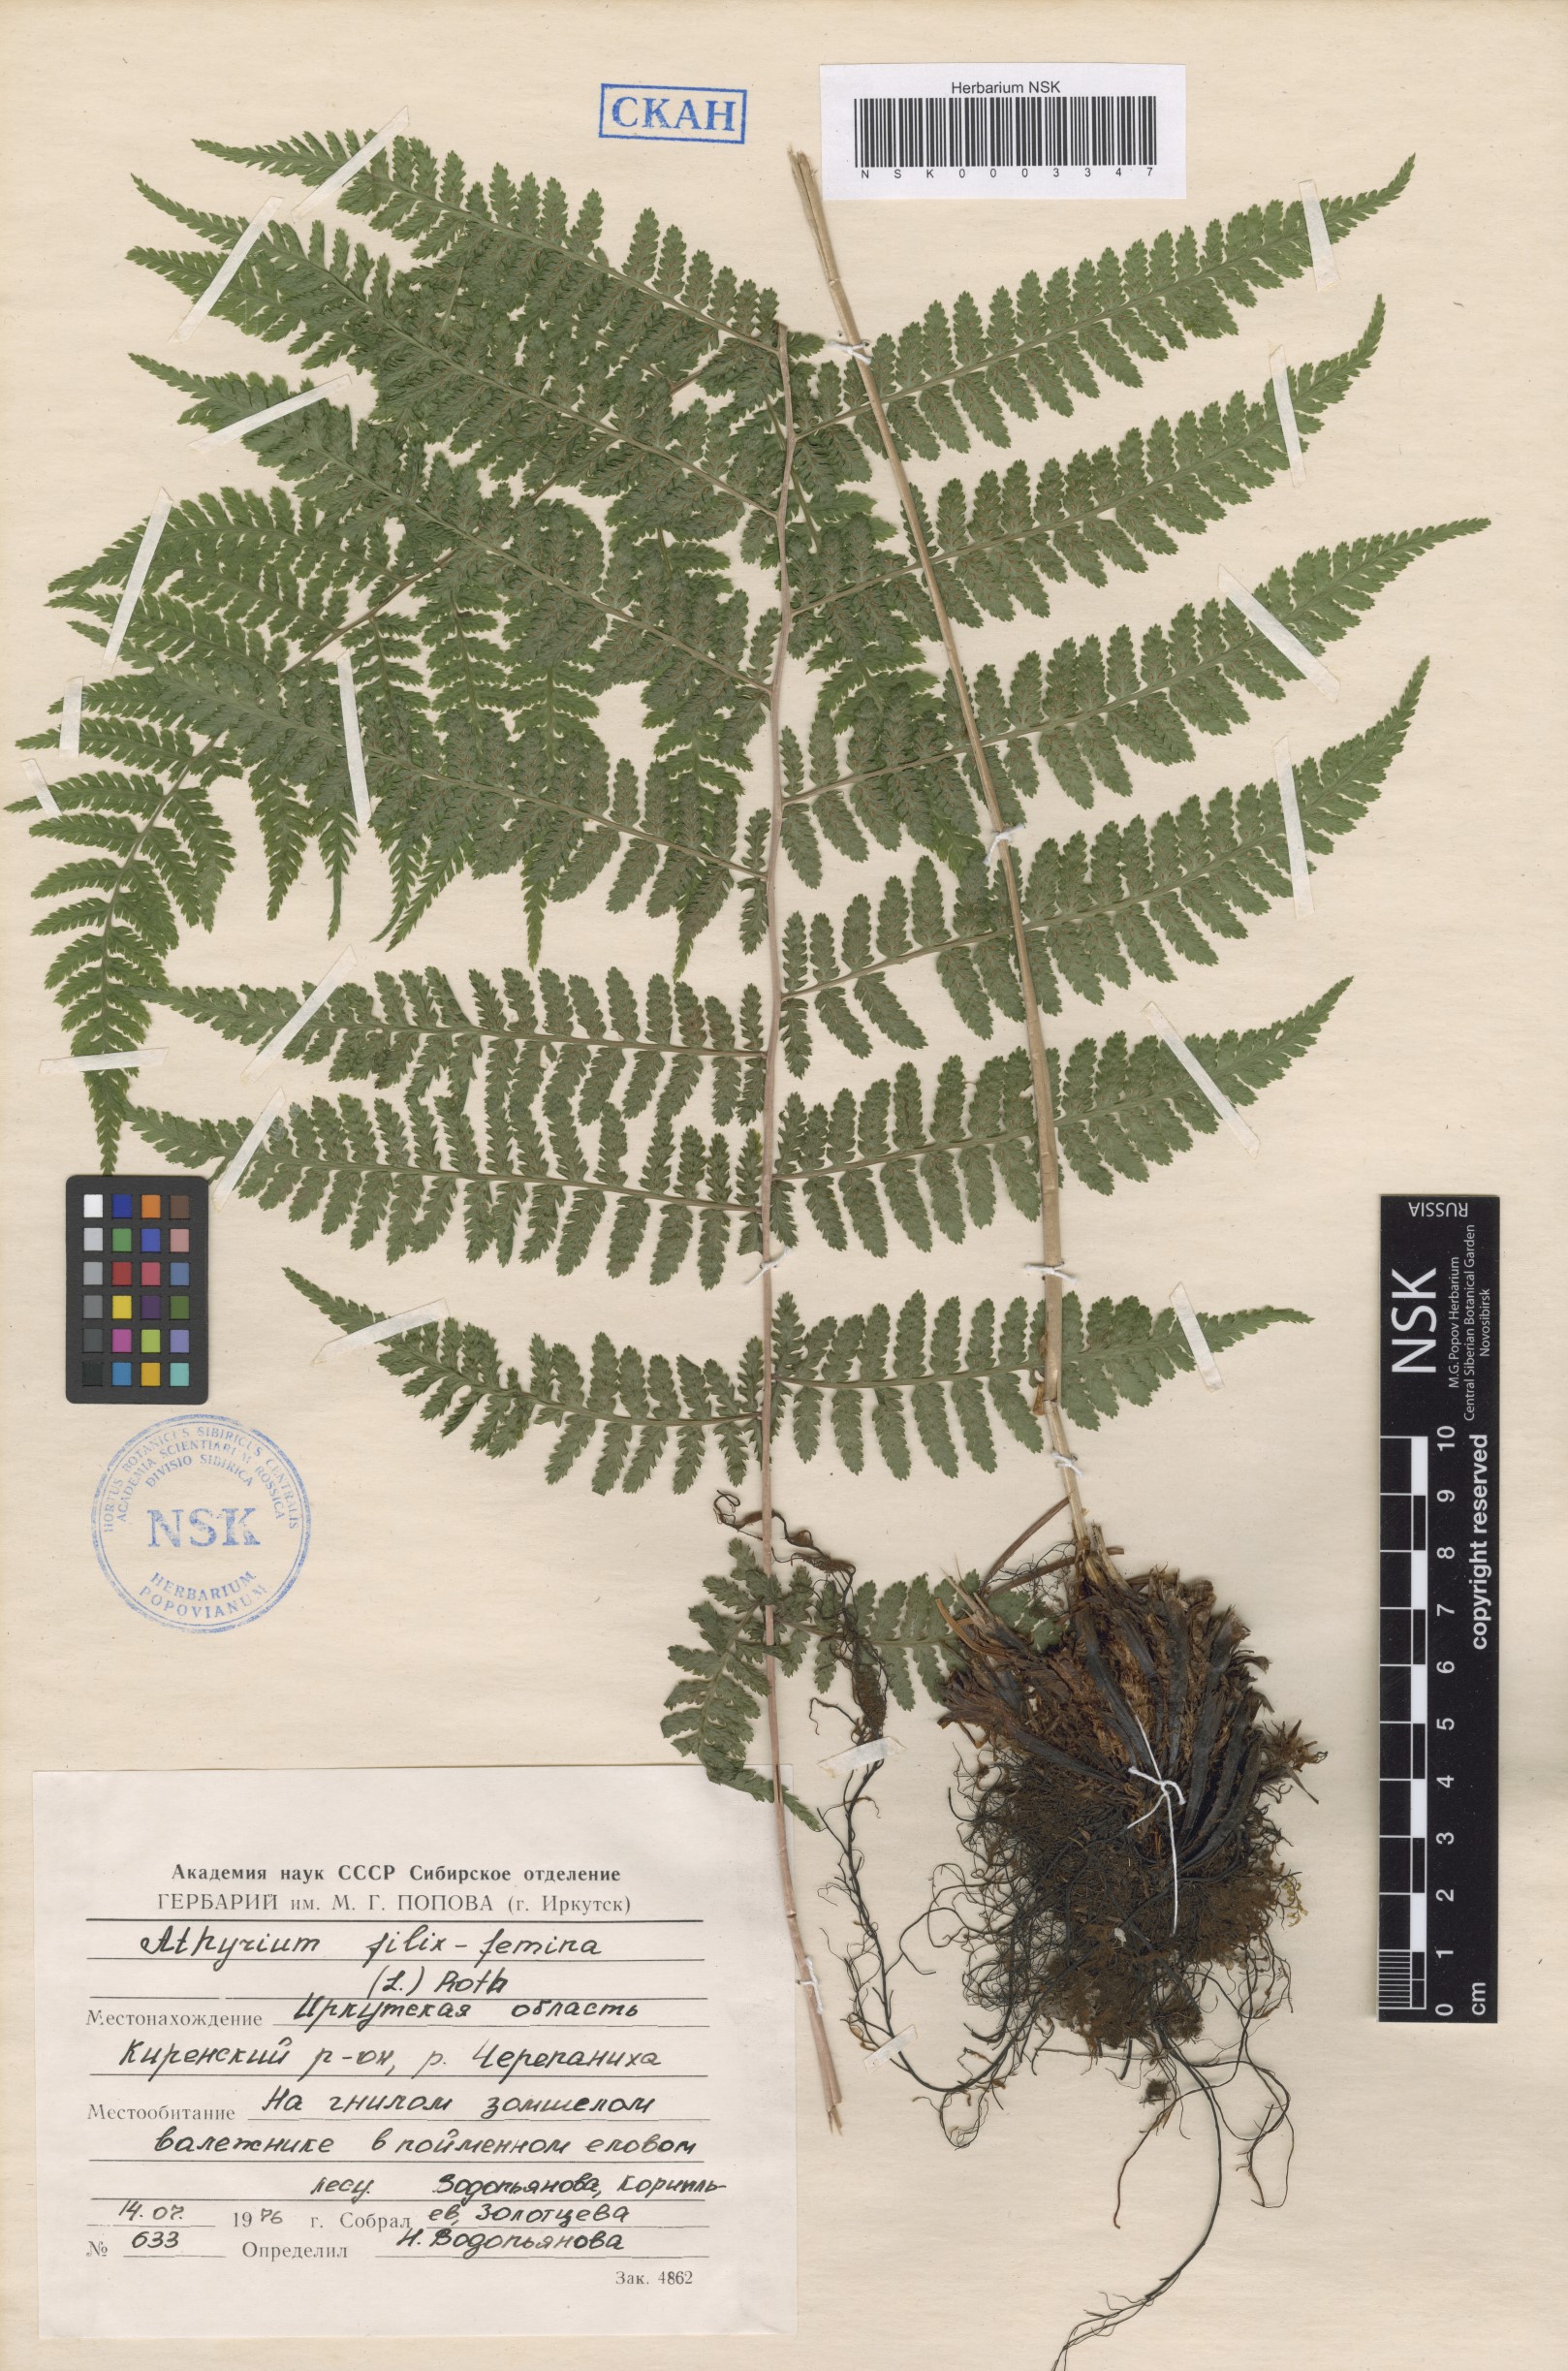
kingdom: Plantae
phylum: Tracheophyta
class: Polypodiopsida
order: Polypodiales
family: Athyriaceae
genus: Athyrium
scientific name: Athyrium filix-femina
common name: Lady fern
